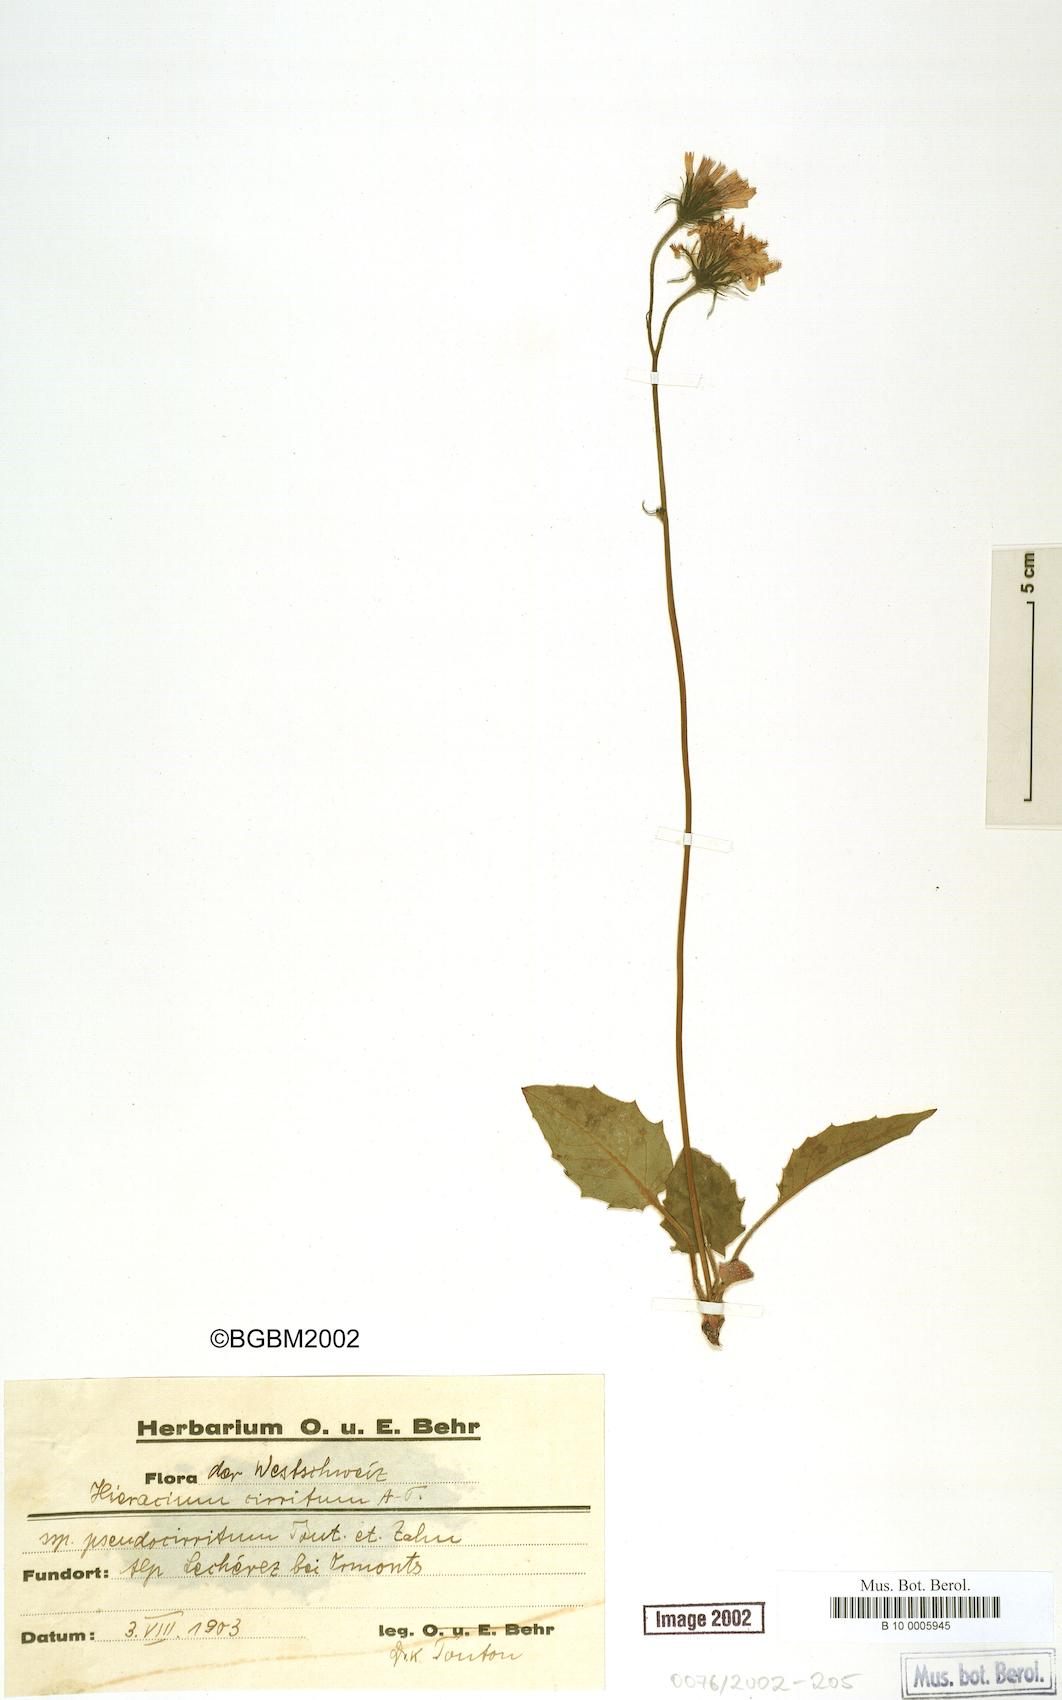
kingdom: Plantae
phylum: Tracheophyta
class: Magnoliopsida
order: Asterales
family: Asteraceae
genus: Hieracium
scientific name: Hieracium cirritum
